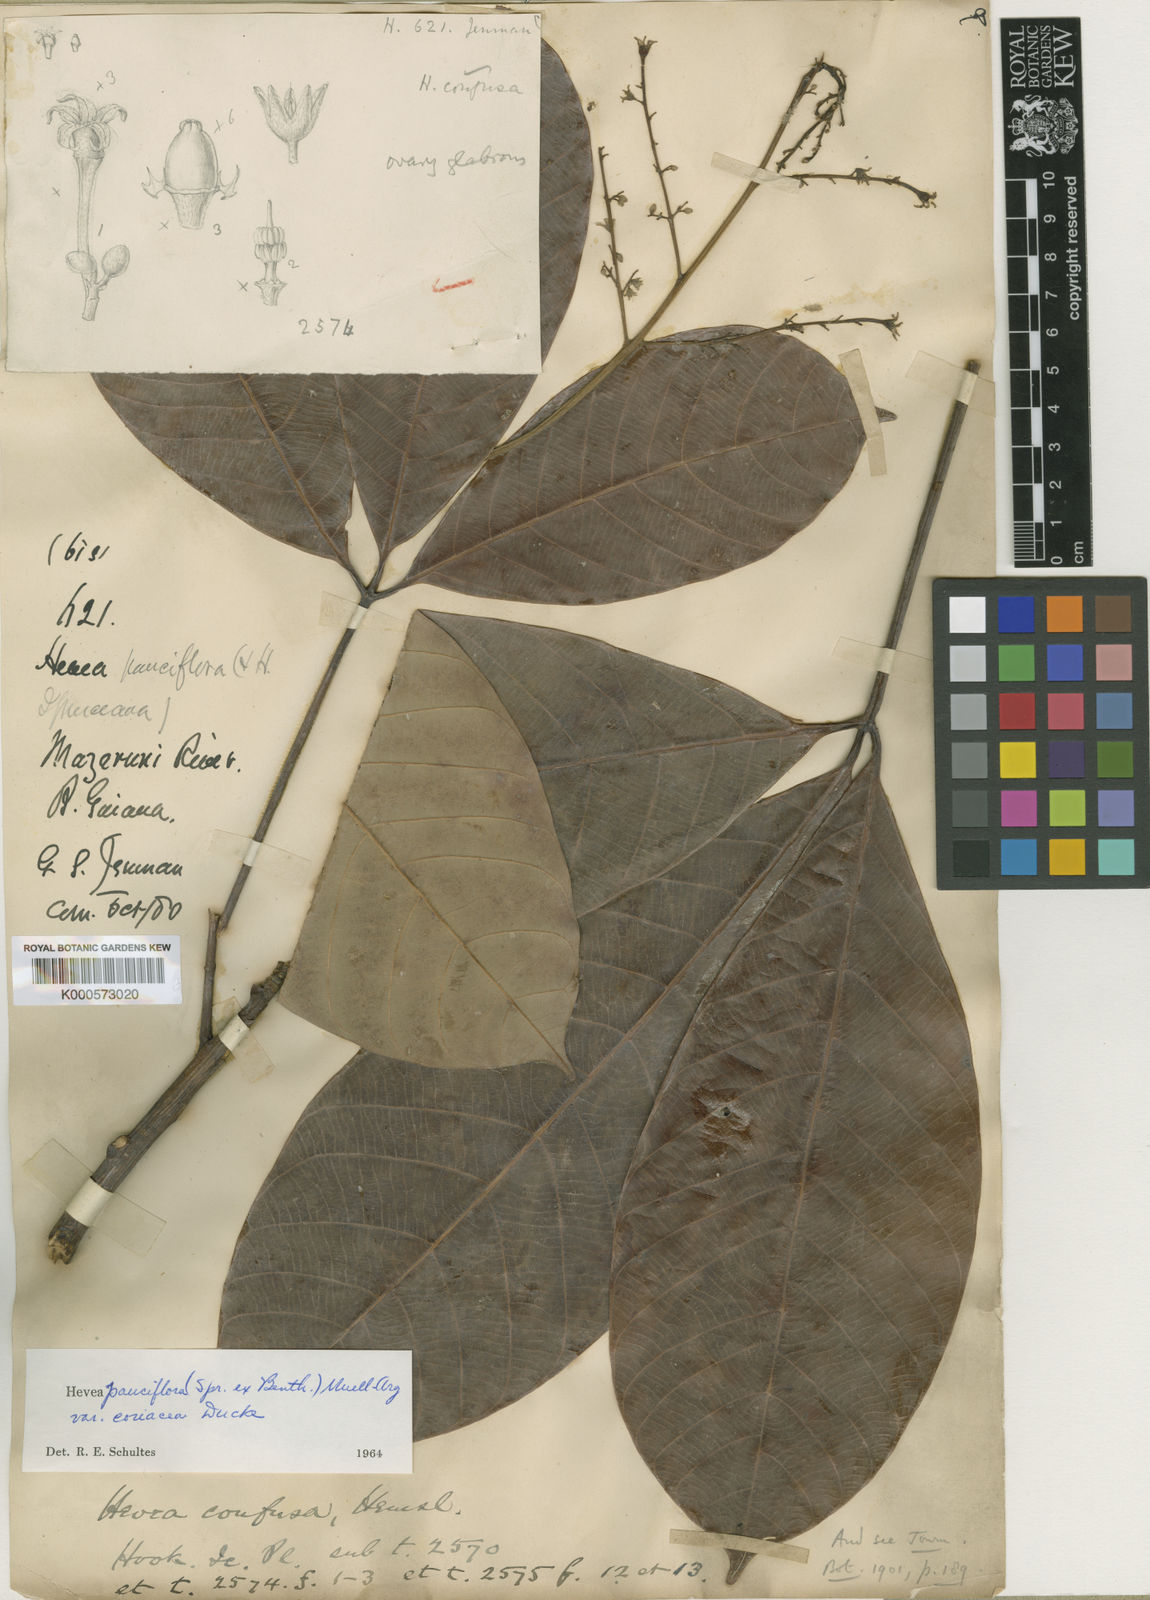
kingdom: Plantae
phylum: Tracheophyta
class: Magnoliopsida
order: Malpighiales
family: Euphorbiaceae
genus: Hevea
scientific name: Hevea
